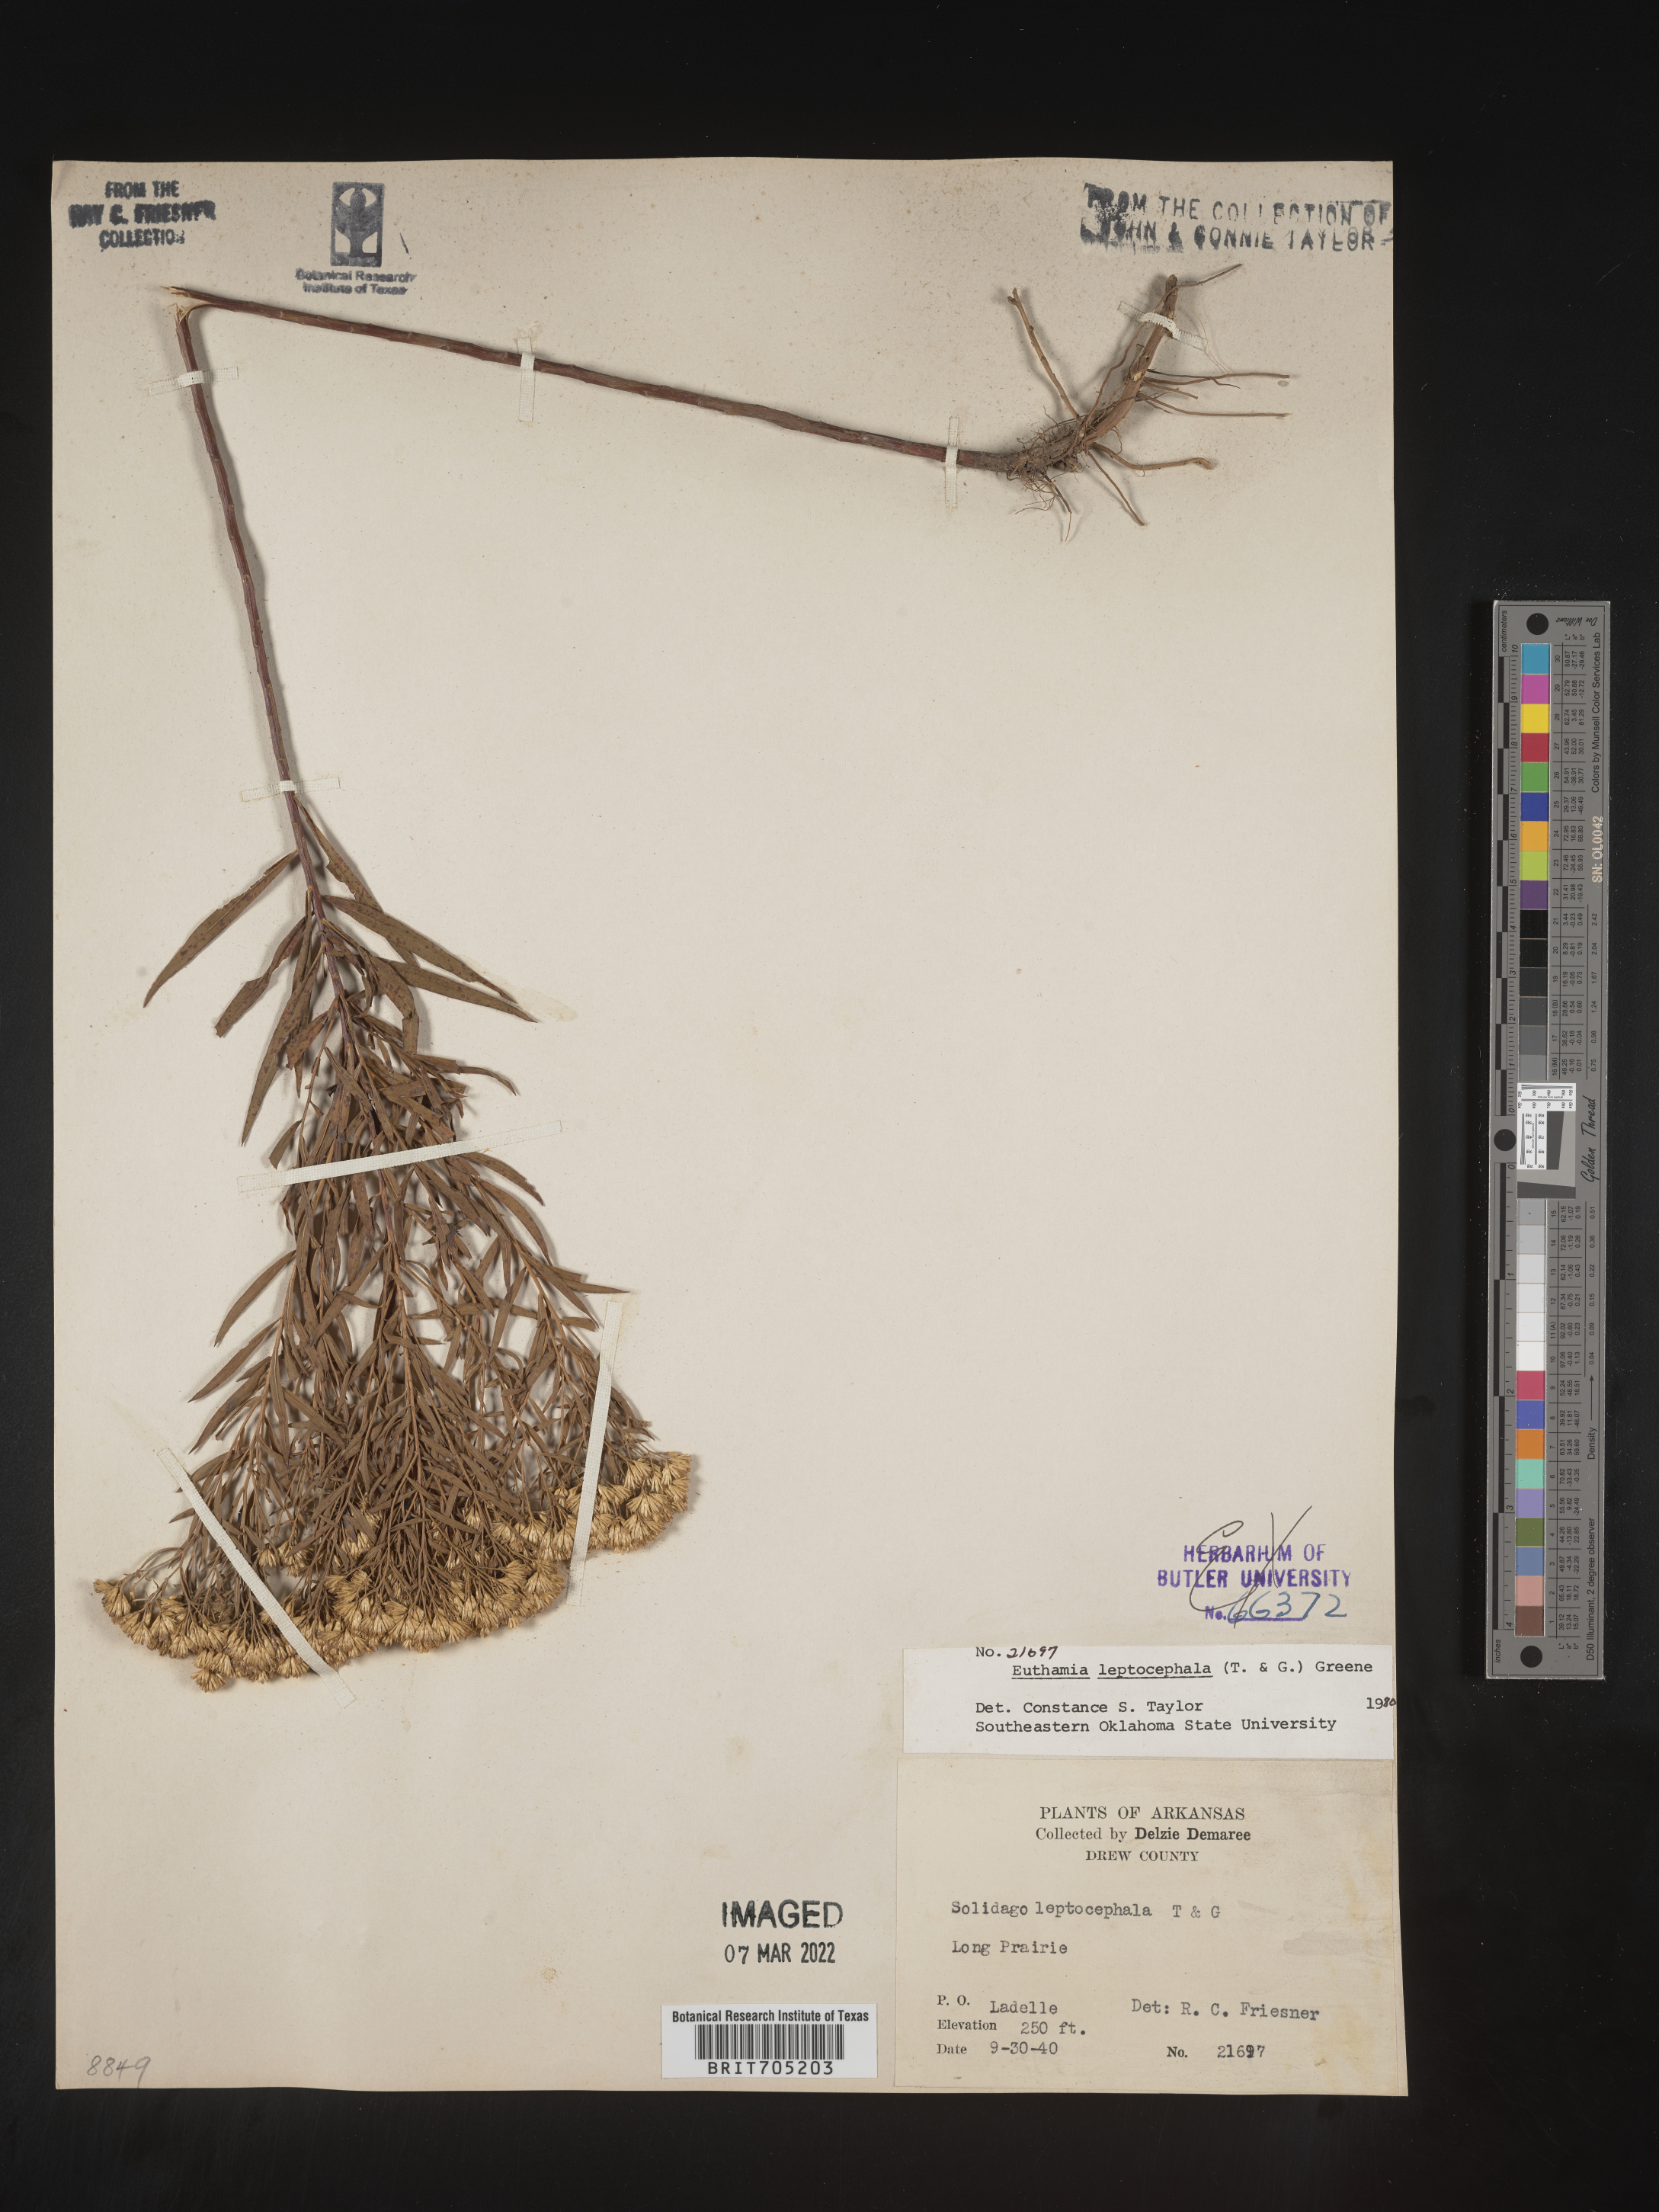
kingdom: Plantae
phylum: Tracheophyta
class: Magnoliopsida
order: Asterales
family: Asteraceae
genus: Euthamia
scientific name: Euthamia leptocephala
